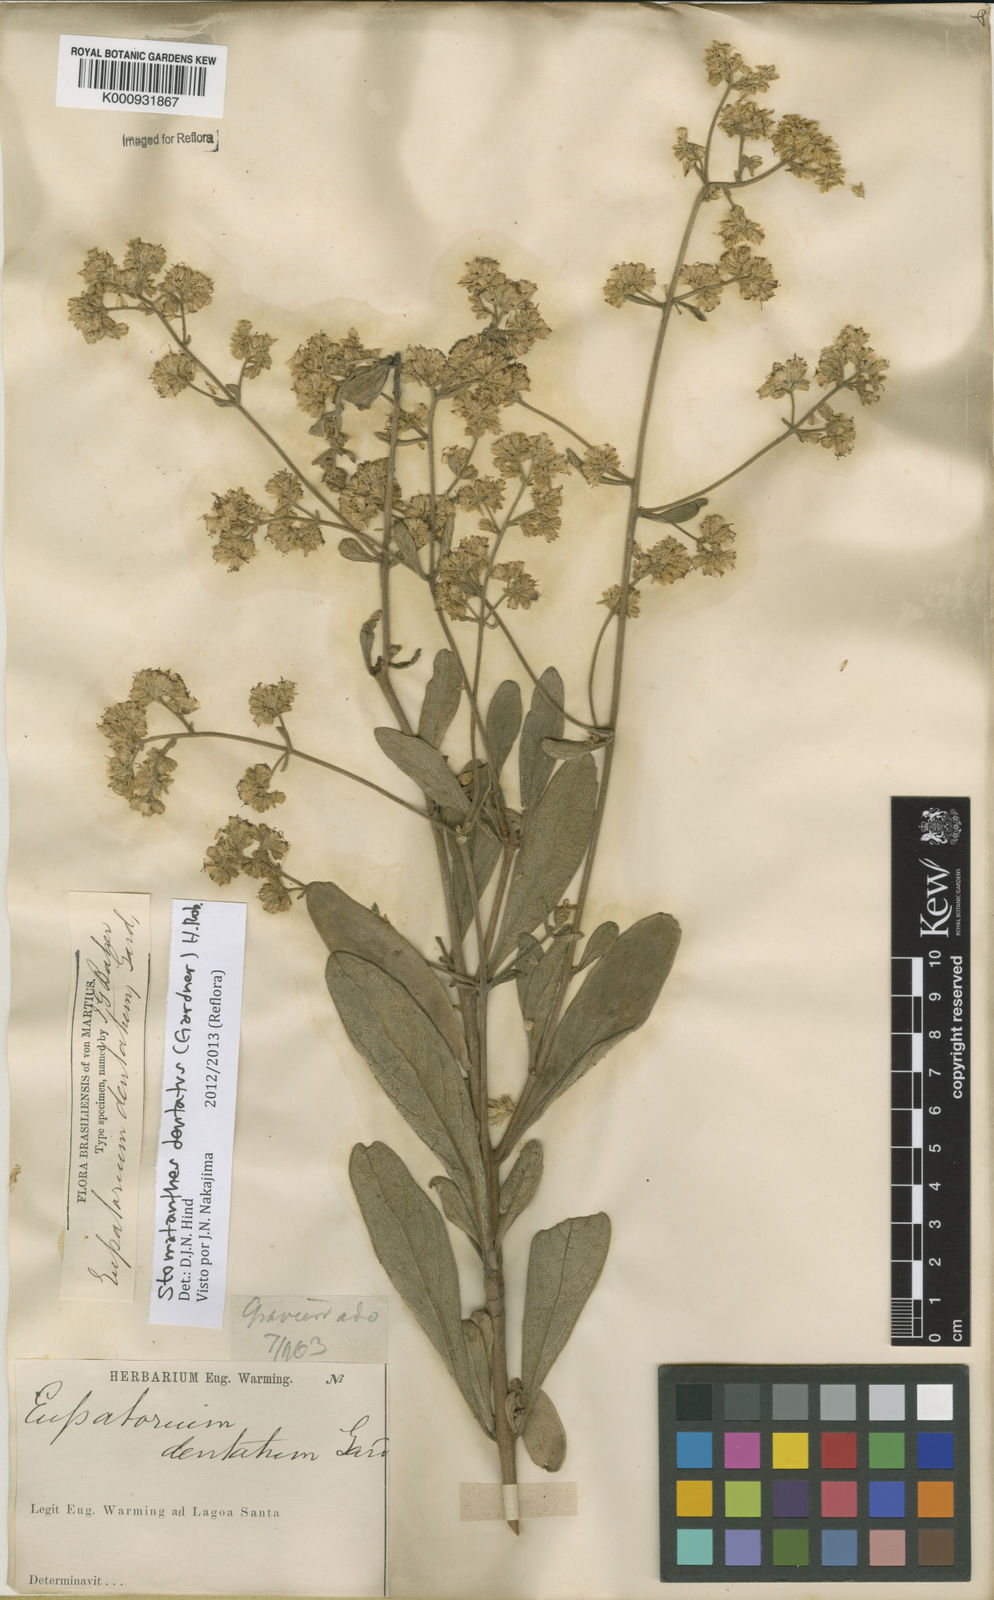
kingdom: Plantae
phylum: Tracheophyta
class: Magnoliopsida
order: Asterales
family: Asteraceae
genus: Stomatanthes
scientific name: Stomatanthes dentatus
